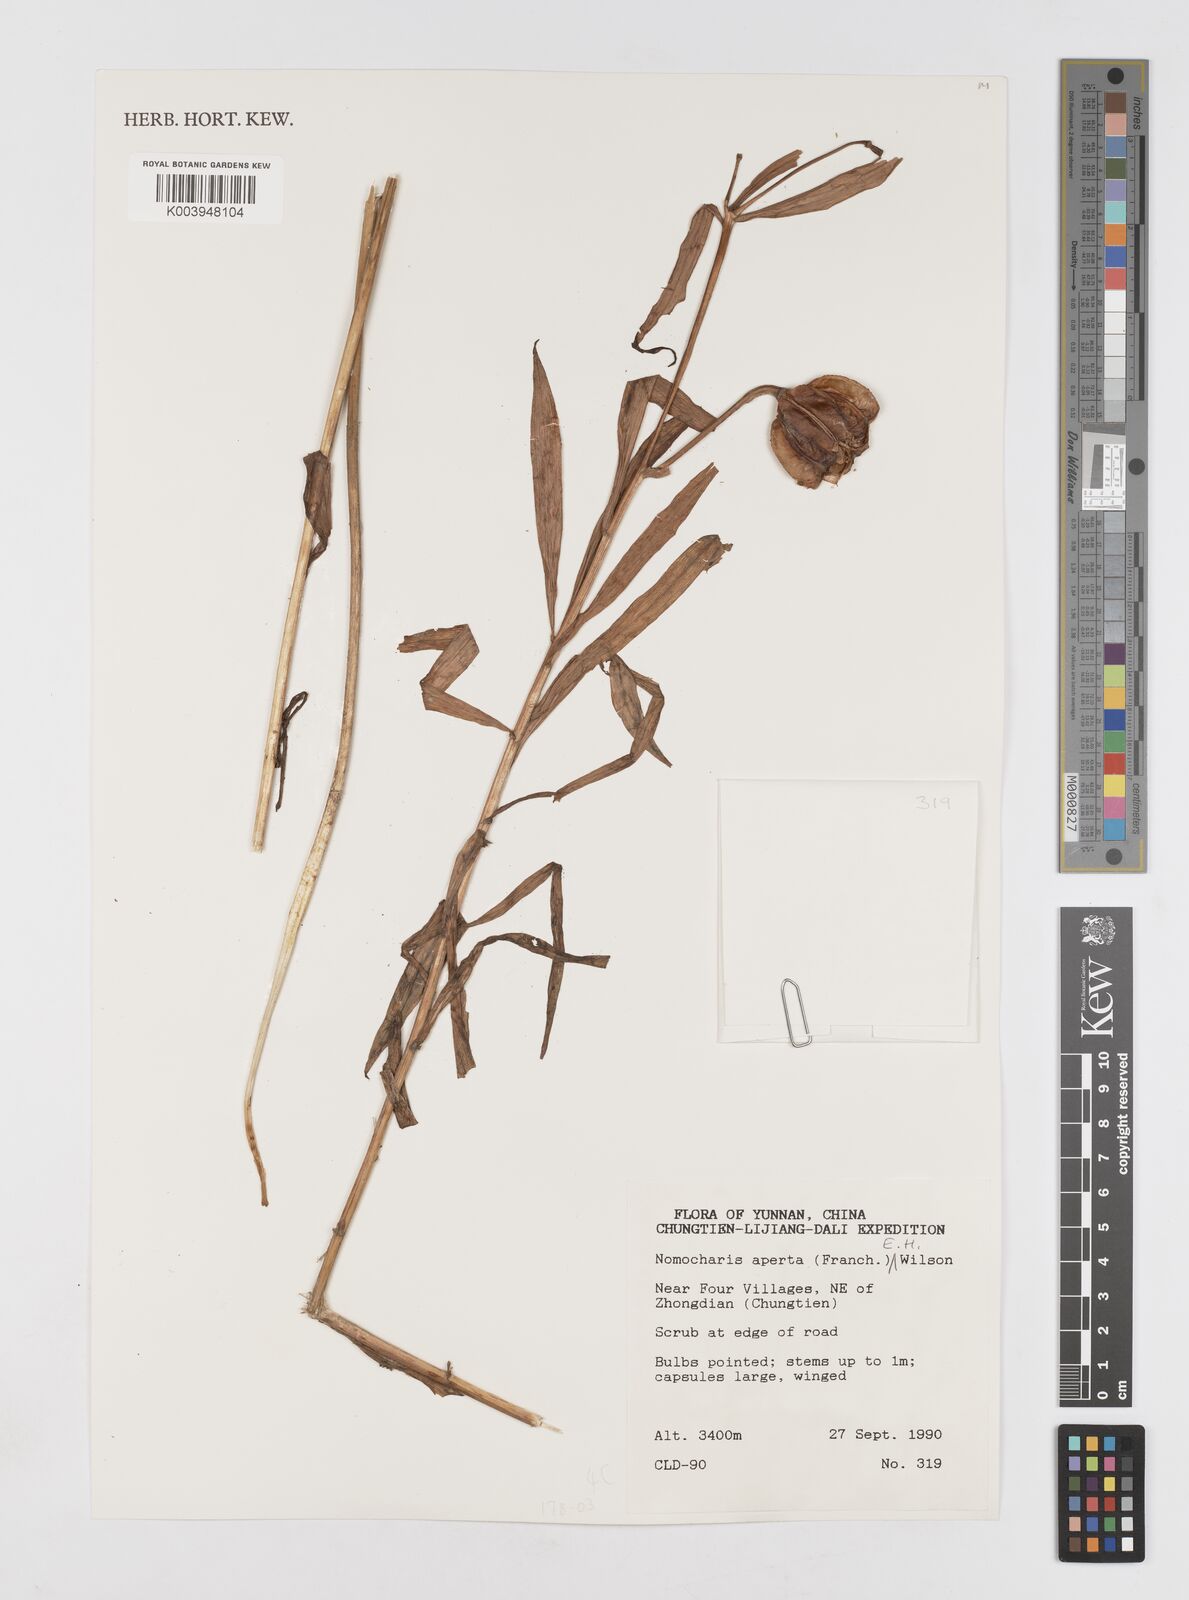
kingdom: Plantae
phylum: Tracheophyta
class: Liliopsida
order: Liliales
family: Liliaceae
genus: Lilium
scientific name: Lilium apertum
